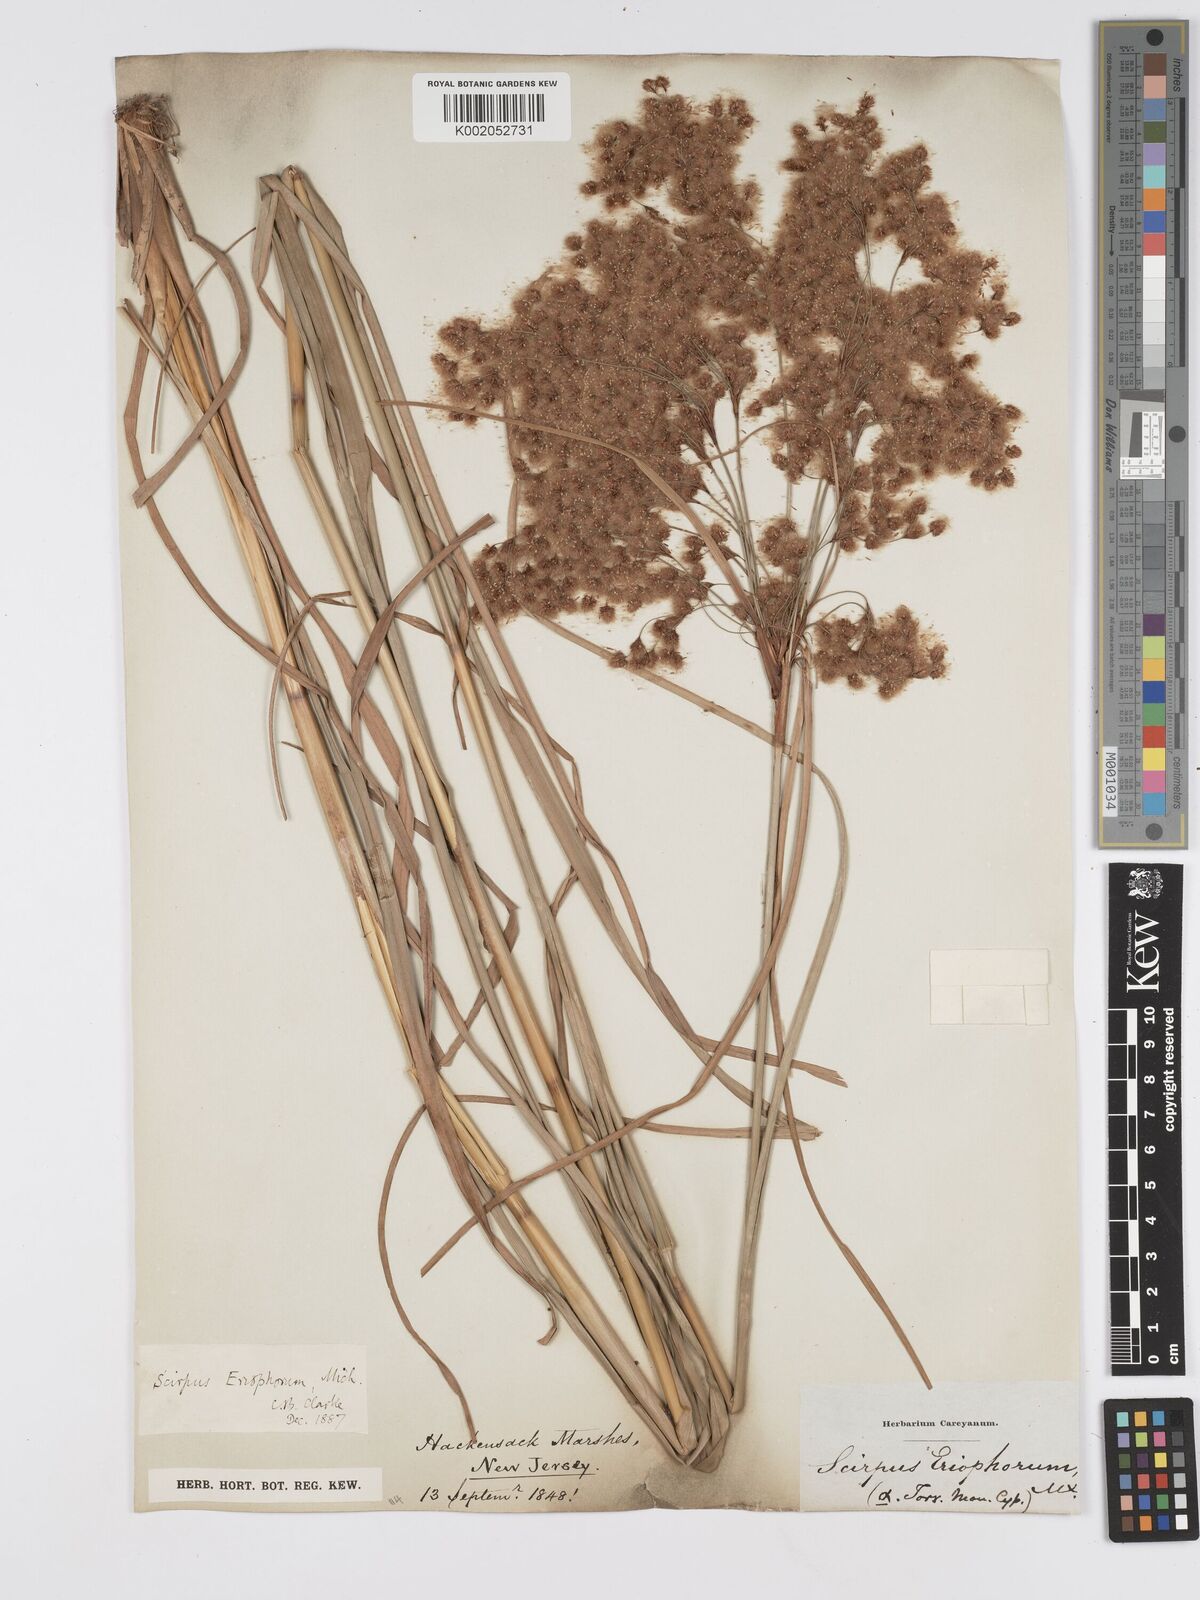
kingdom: Plantae
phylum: Tracheophyta
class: Liliopsida
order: Poales
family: Cyperaceae
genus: Scirpus
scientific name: Scirpus cyperinus
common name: Black-sheathed bulrush
